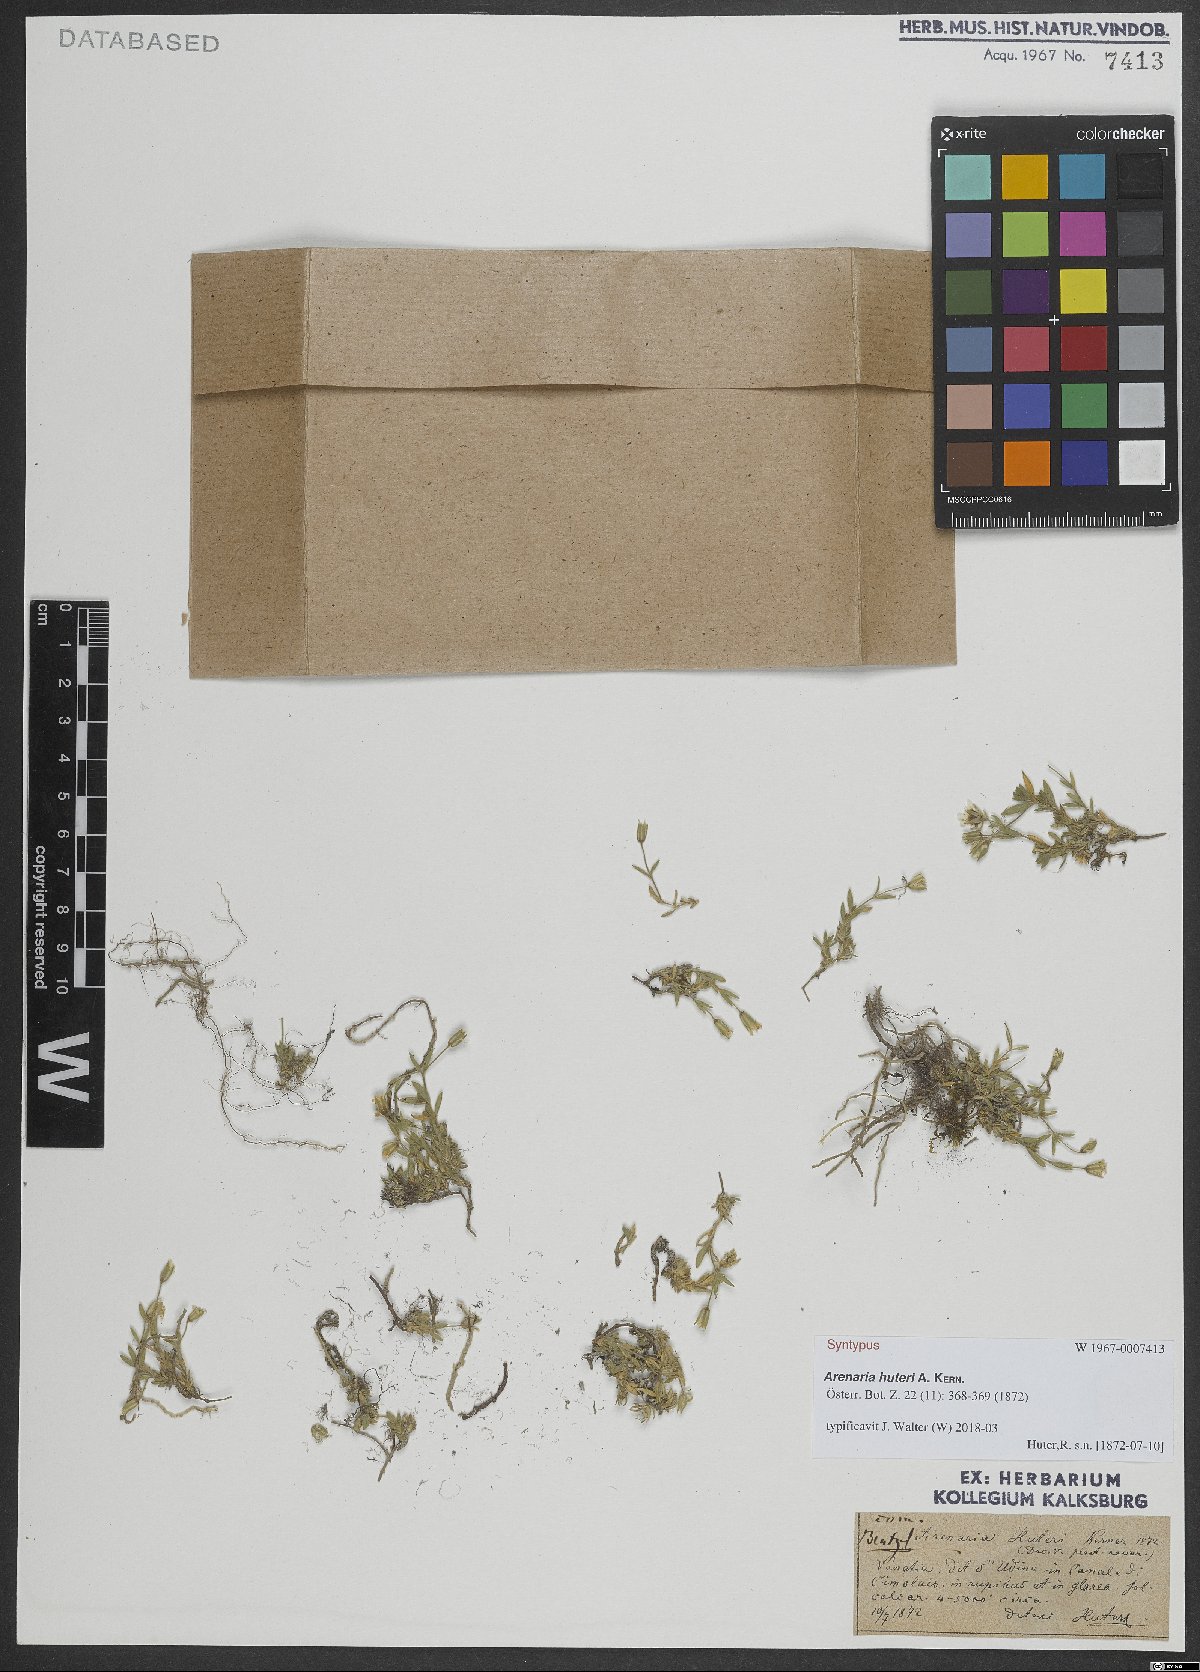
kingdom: Plantae
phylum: Tracheophyta
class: Magnoliopsida
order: Caryophyllales
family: Caryophyllaceae
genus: Arenaria
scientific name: Arenaria huteri
